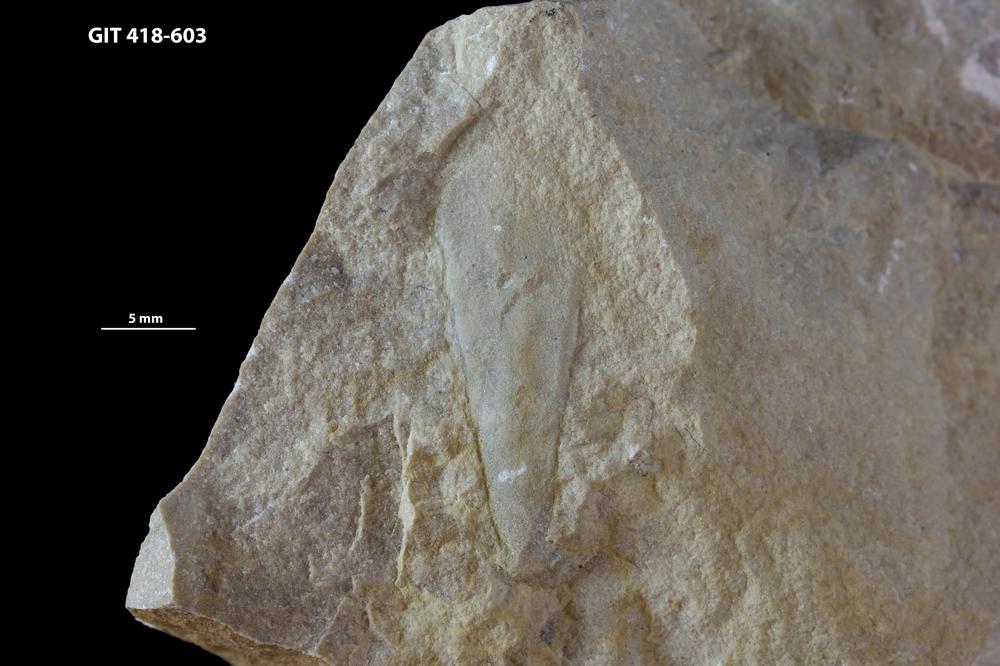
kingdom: Animalia
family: Hyolithidae
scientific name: Hyolithidae
